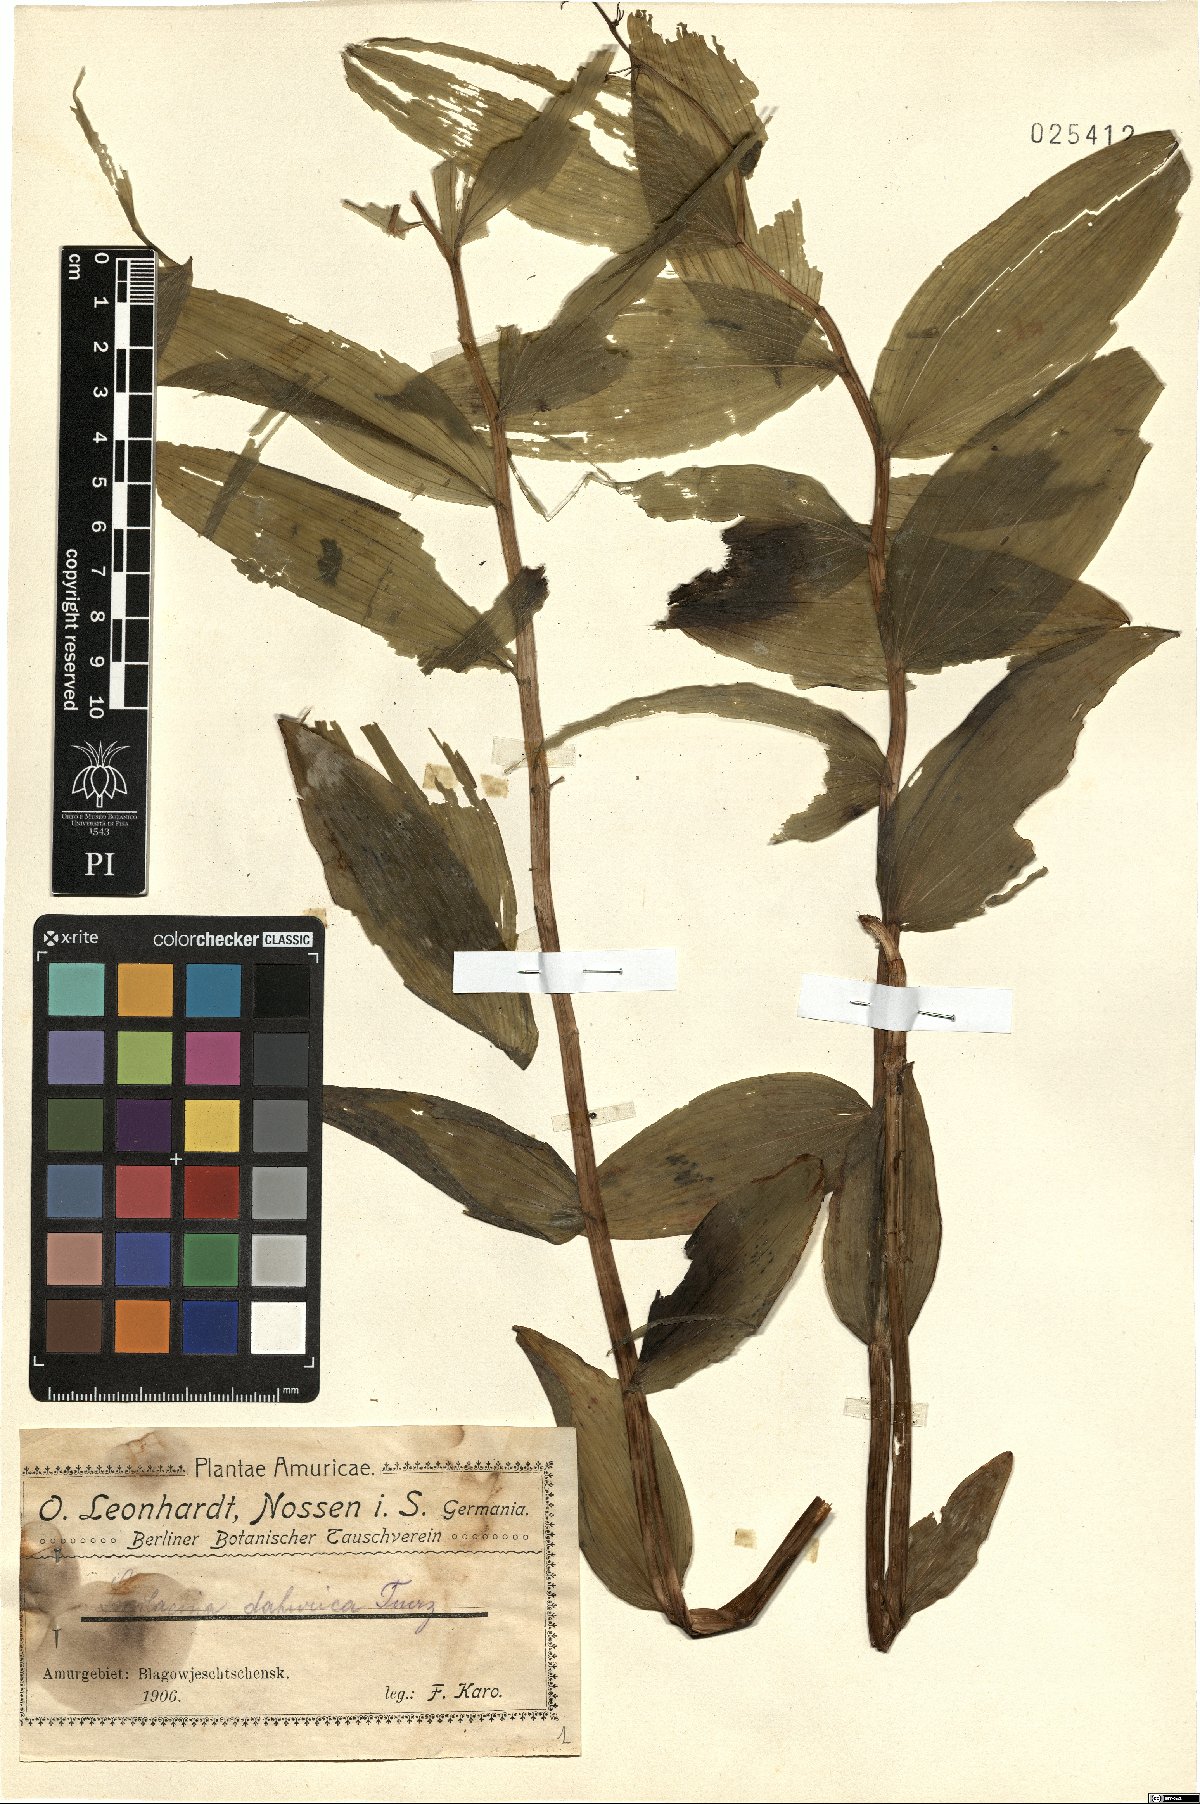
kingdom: Plantae
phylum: Tracheophyta
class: Liliopsida
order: Asparagales
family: Asparagaceae
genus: Maianthemum
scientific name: Maianthemum dahuricum
